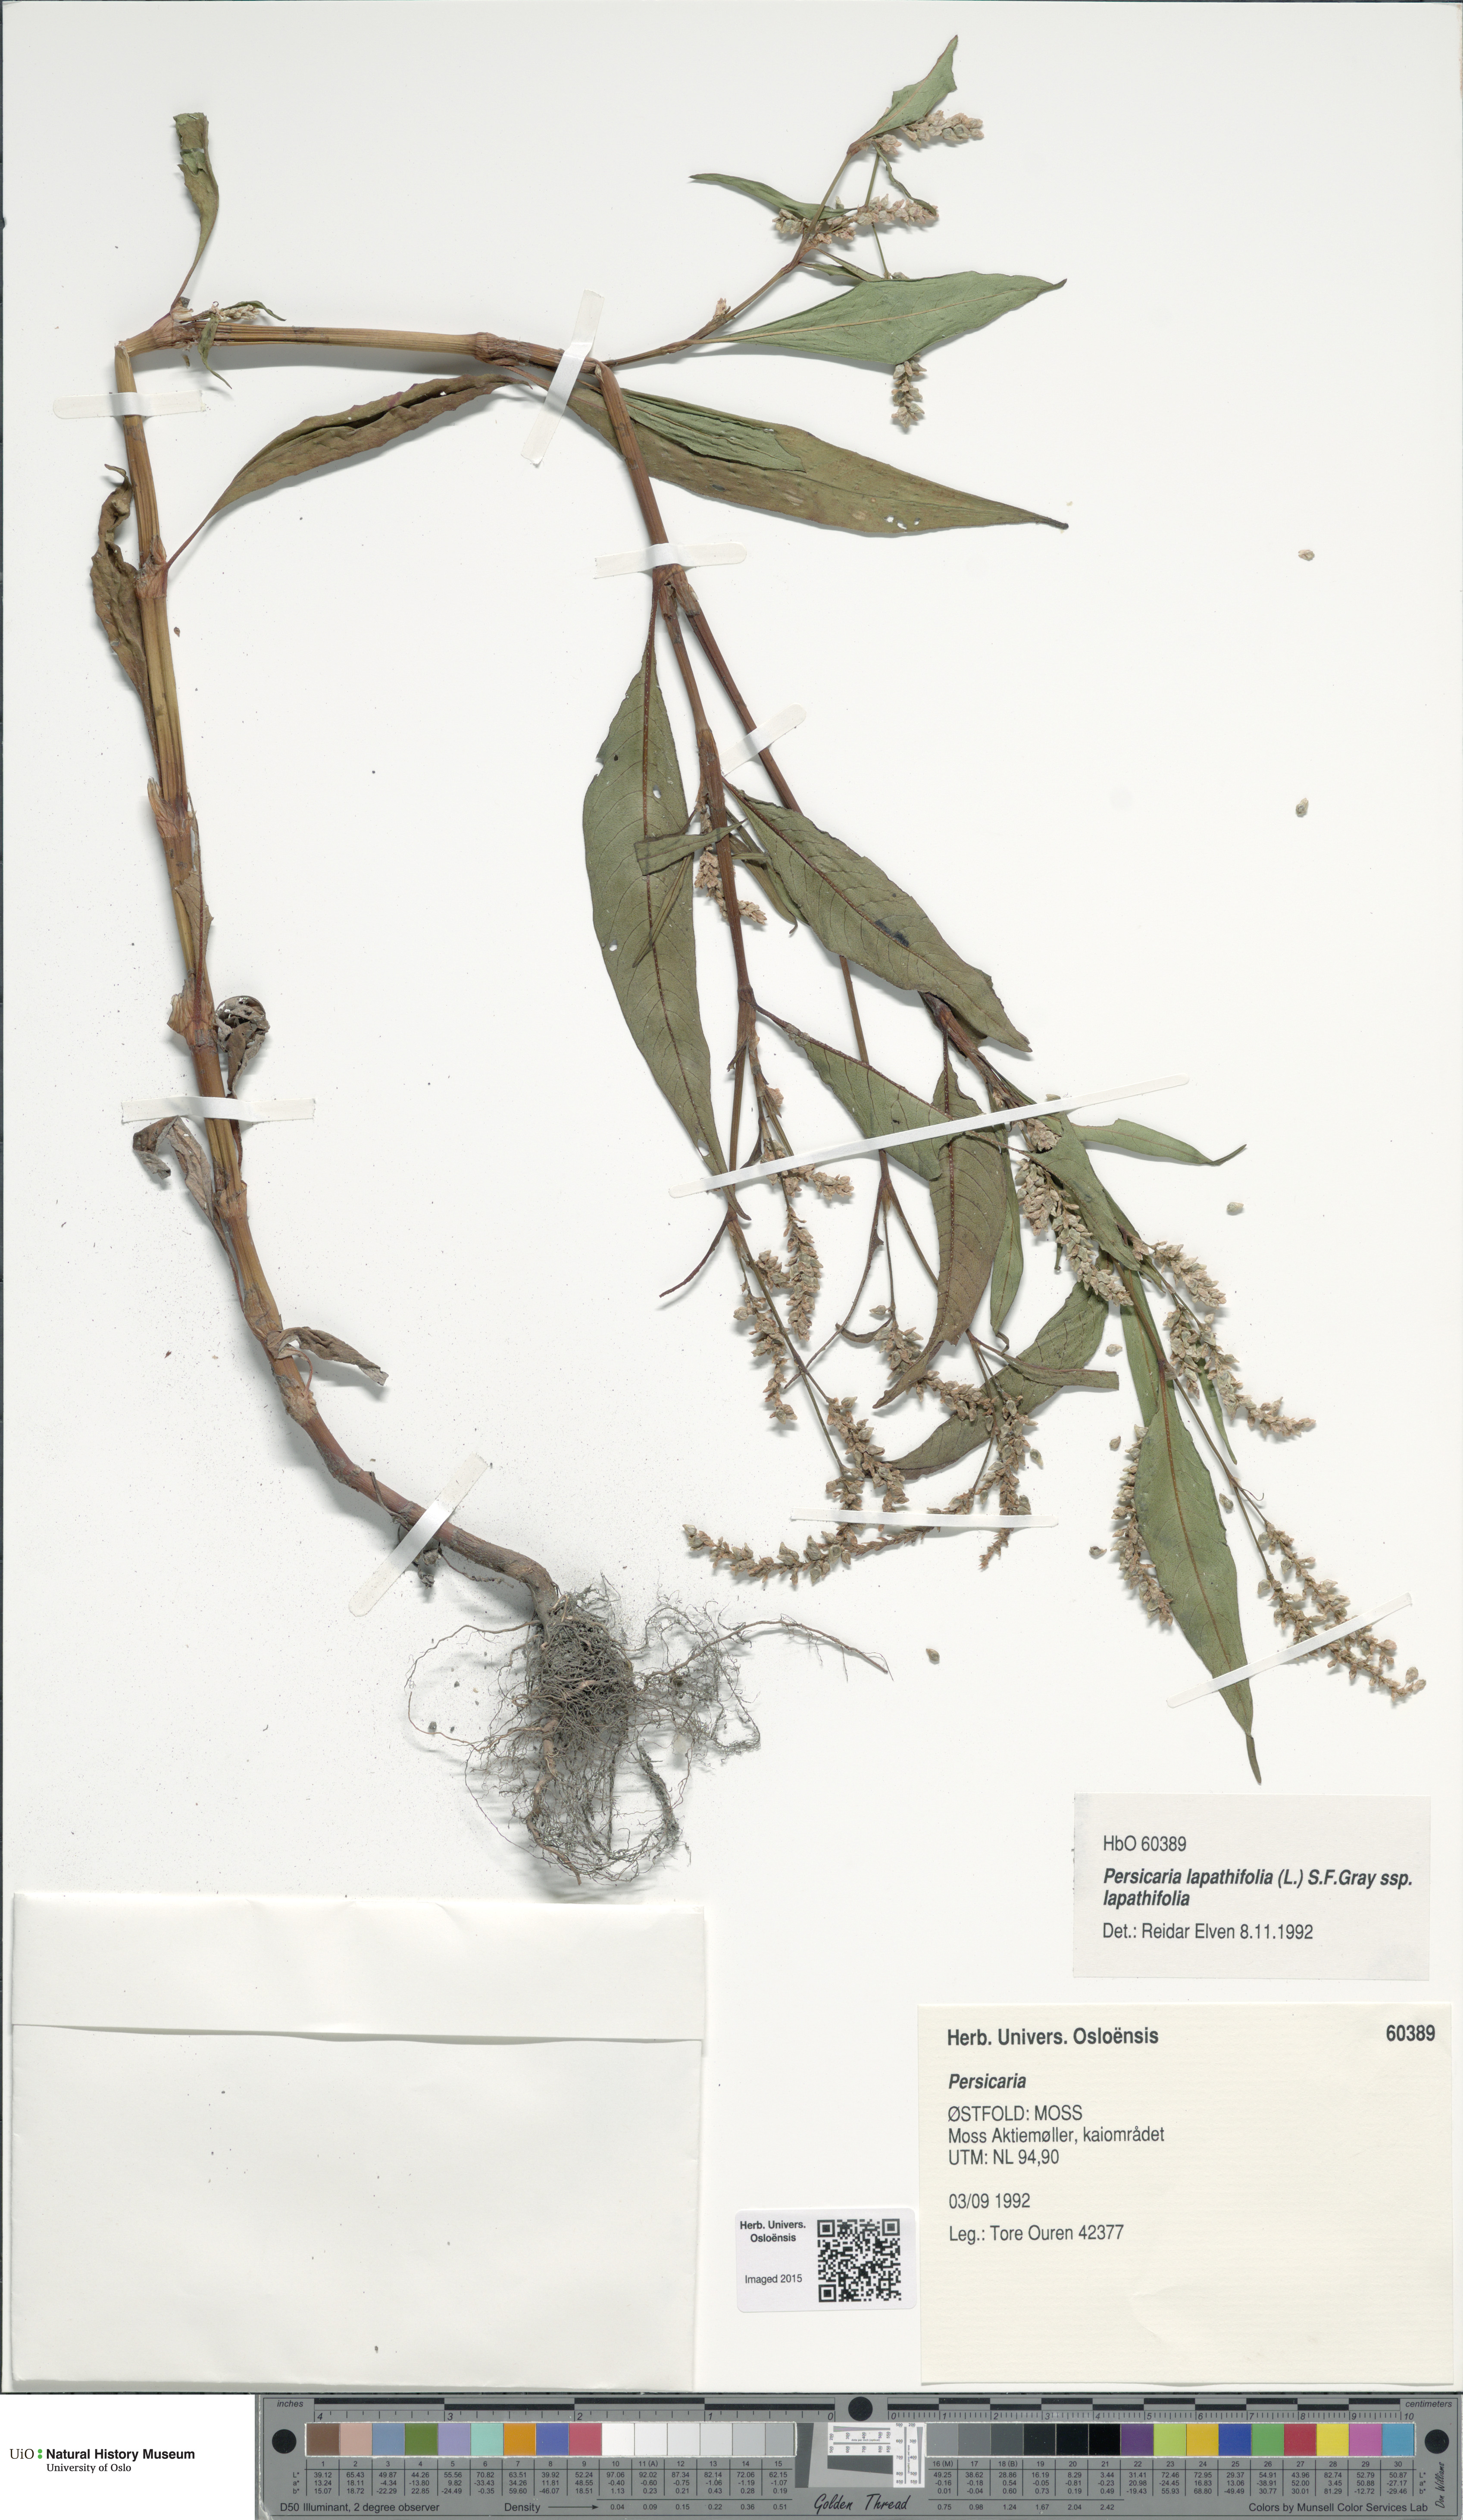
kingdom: Plantae
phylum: Tracheophyta
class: Magnoliopsida
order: Caryophyllales
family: Polygonaceae
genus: Persicaria
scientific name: Persicaria lapathifolia
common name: Curlytop knotweed
